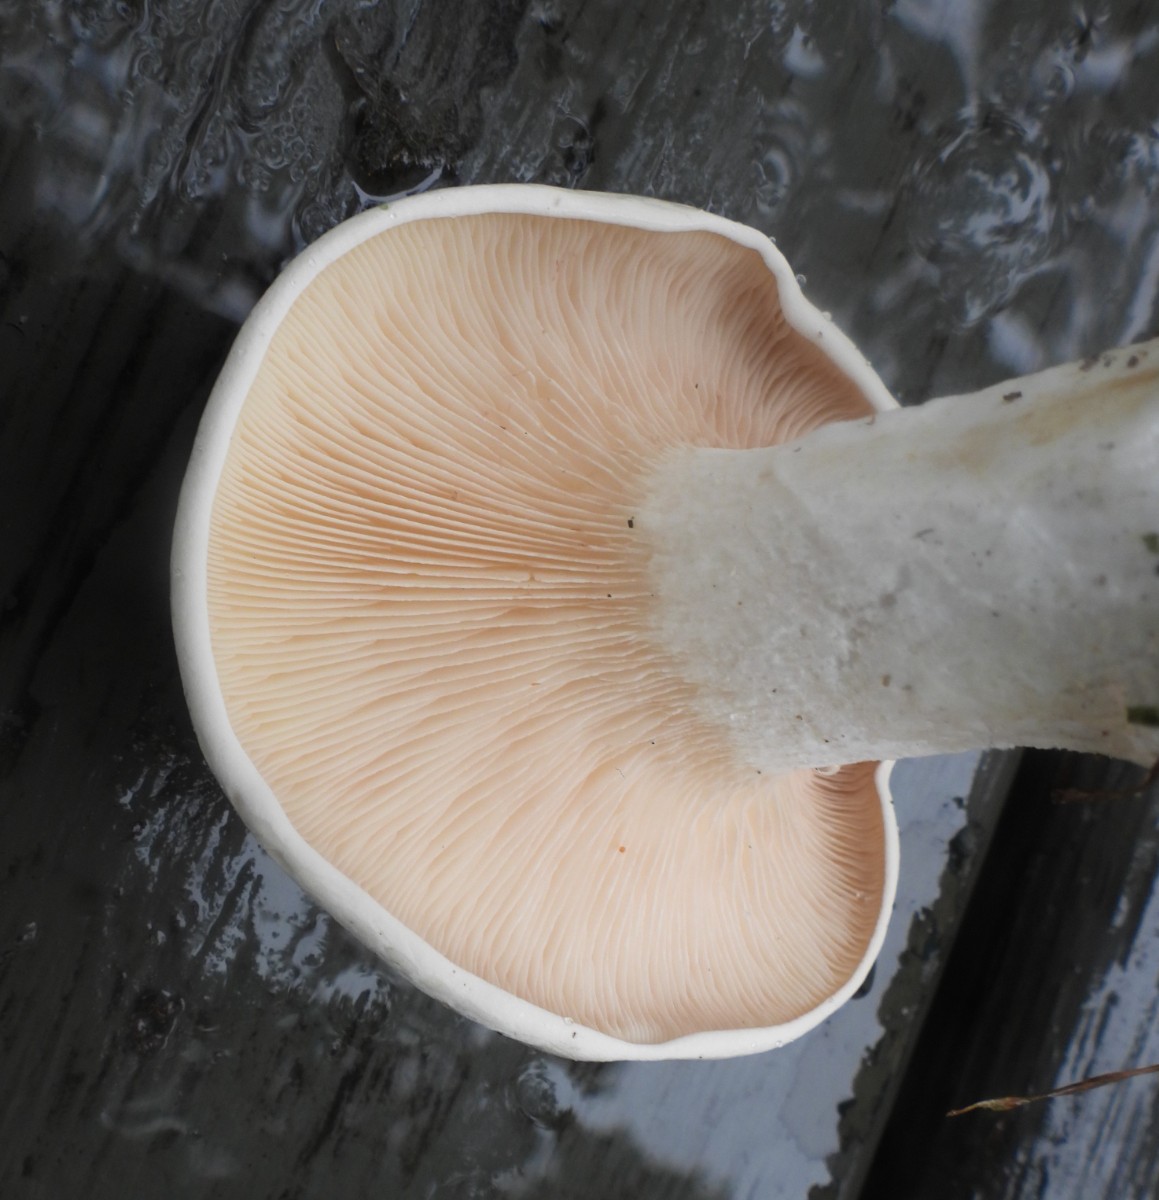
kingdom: Fungi
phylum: Basidiomycota
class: Agaricomycetes
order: Agaricales
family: Entolomataceae
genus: Clitopilus
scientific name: Clitopilus prunulus
